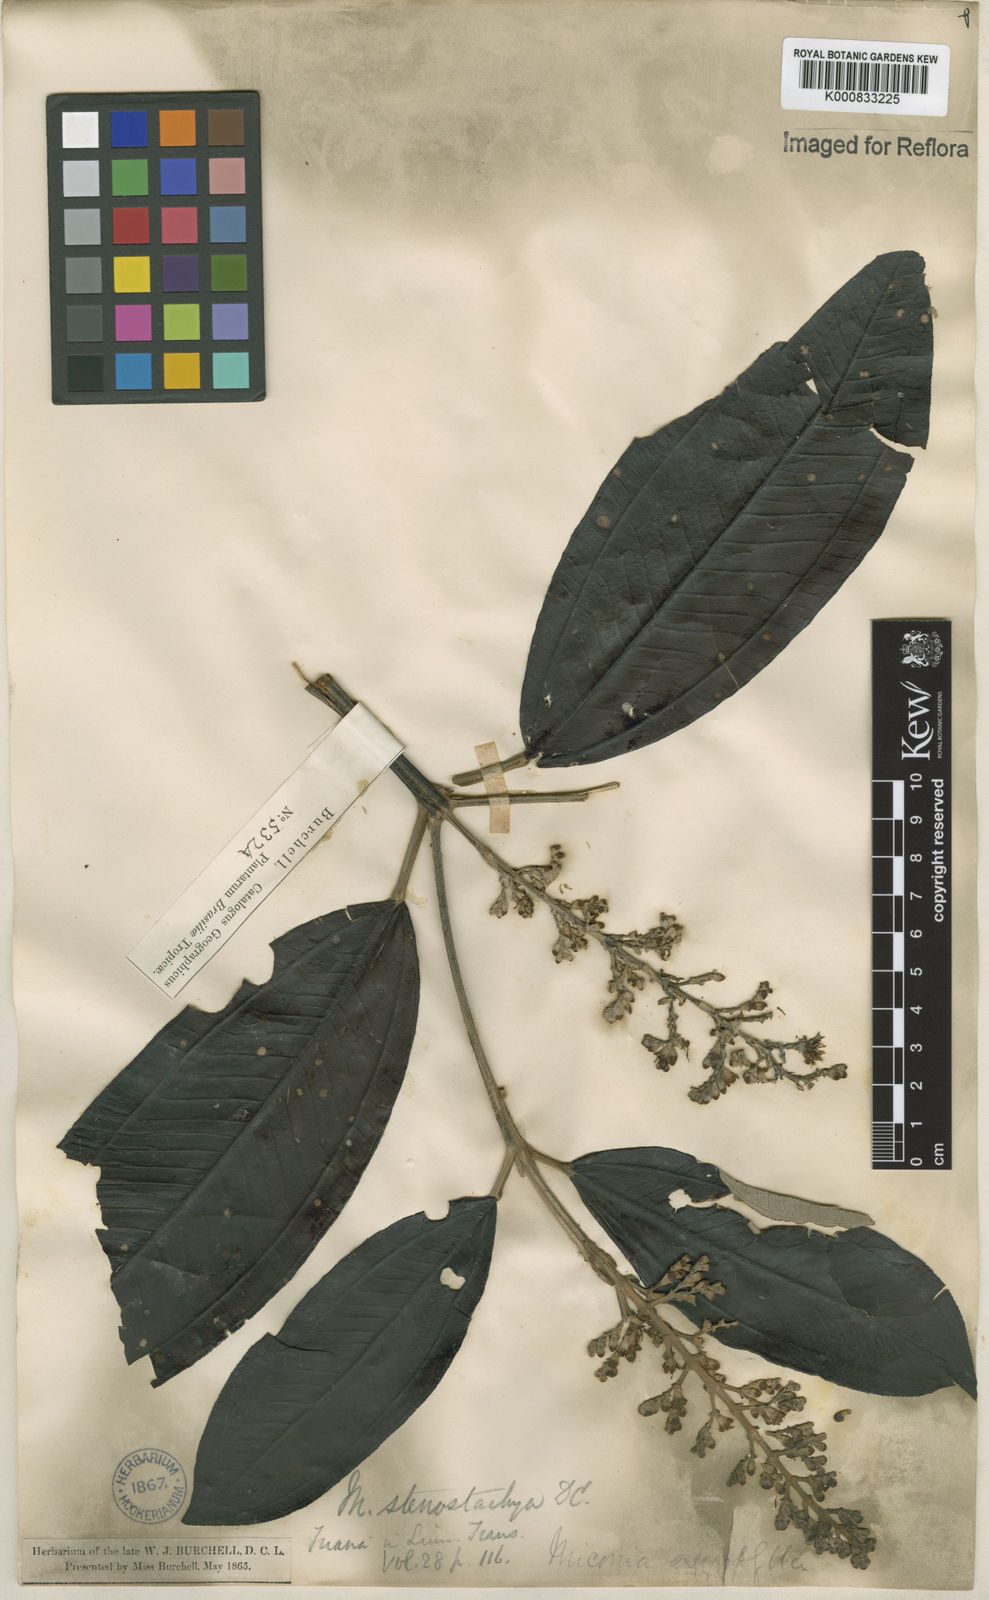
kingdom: Plantae
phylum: Tracheophyta
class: Magnoliopsida
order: Myrtales
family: Melastomataceae
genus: Miconia
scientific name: Miconia stenostachya
